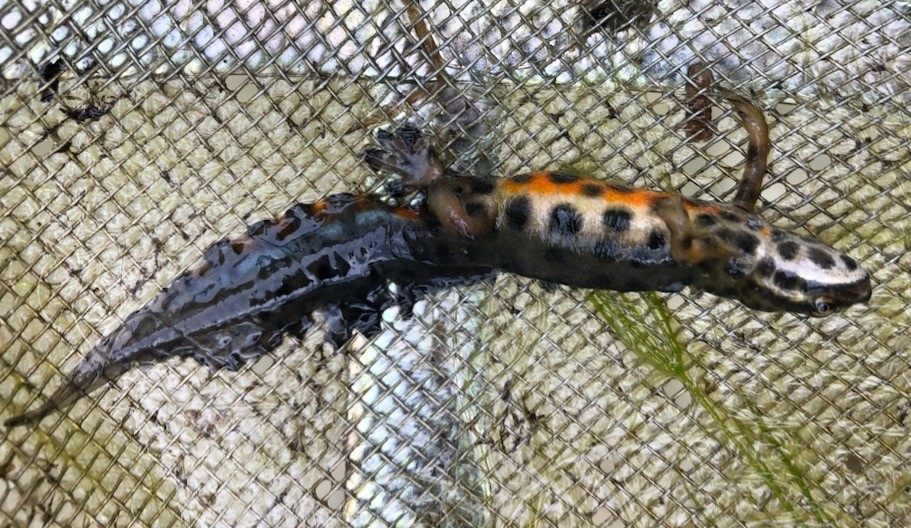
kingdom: Animalia
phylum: Chordata
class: Amphibia
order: Caudata
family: Salamandridae
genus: Lissotriton
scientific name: Lissotriton vulgaris
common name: Lille vandsalamander
